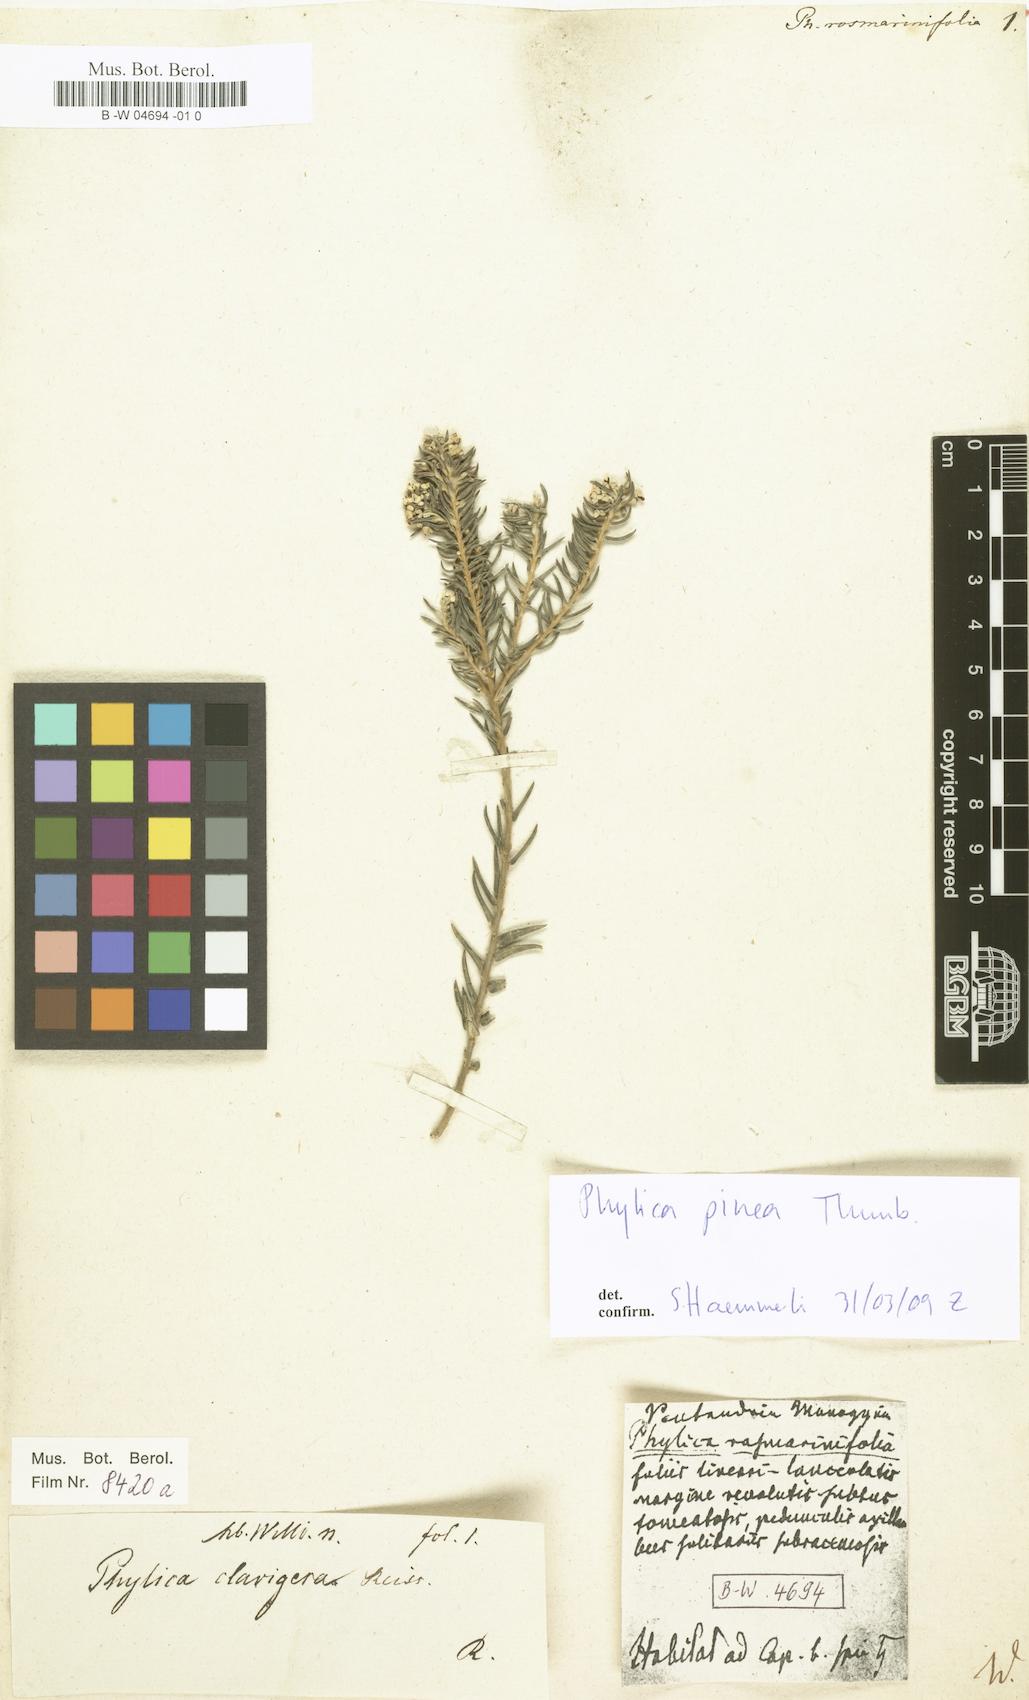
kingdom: Plantae
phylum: Tracheophyta
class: Magnoliopsida
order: Rosales
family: Rhamnaceae
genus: Phylica
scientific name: Phylica
